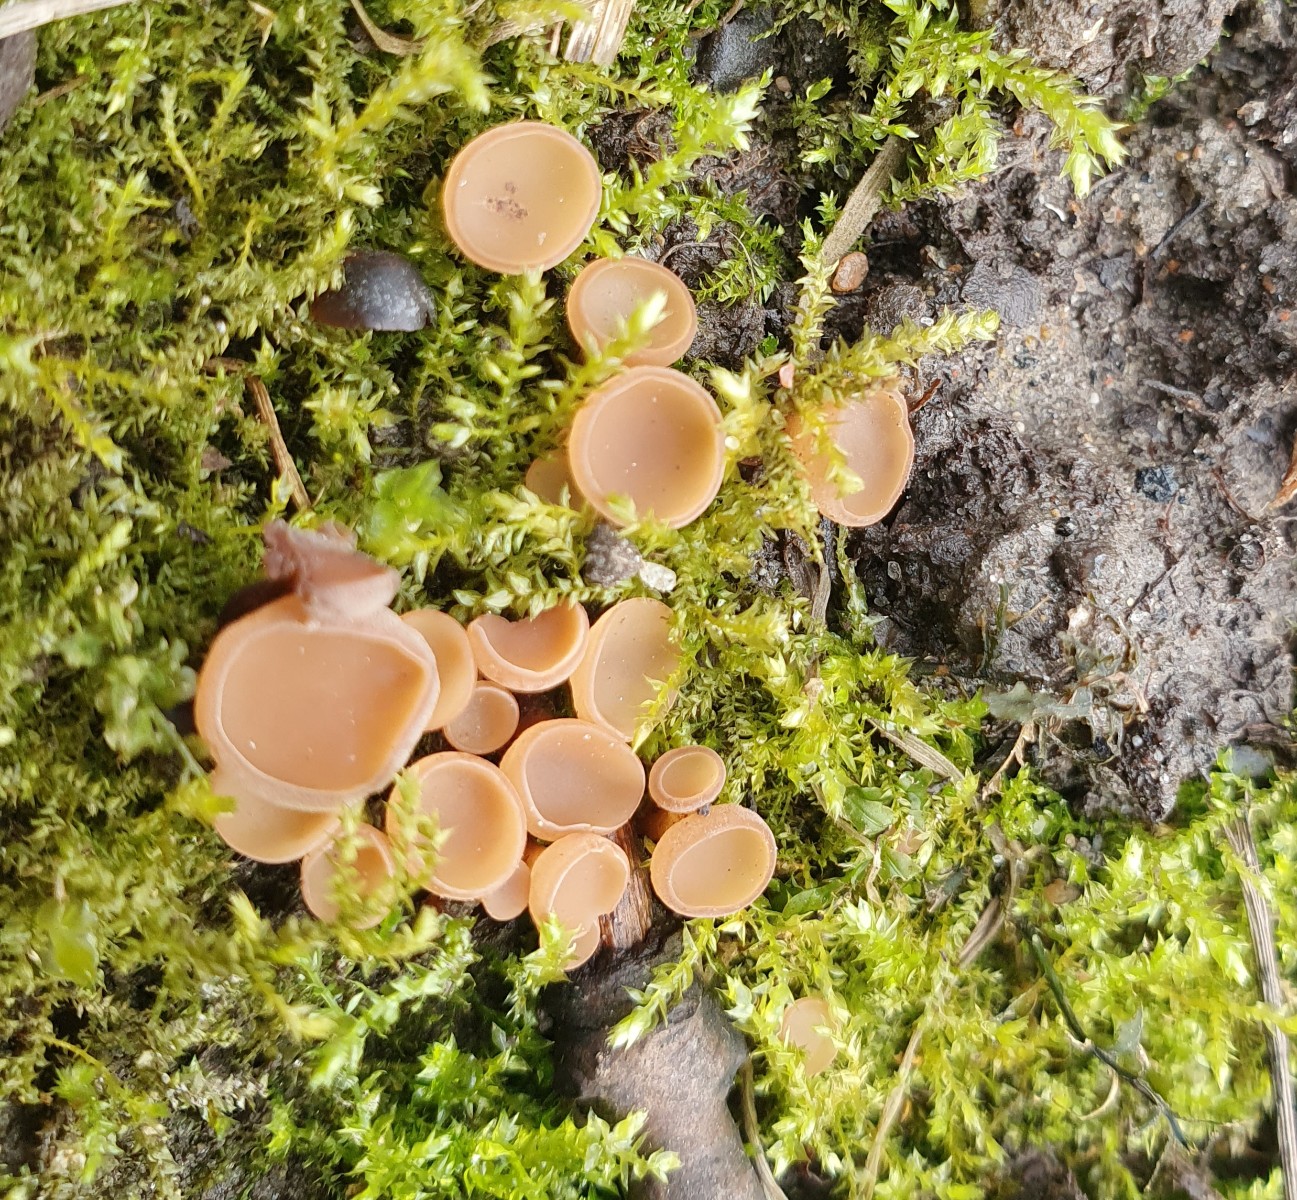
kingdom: Fungi
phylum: Ascomycota
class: Leotiomycetes
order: Helotiales
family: Sclerotiniaceae
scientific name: Sclerotiniaceae
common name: knoldskivefamilien
